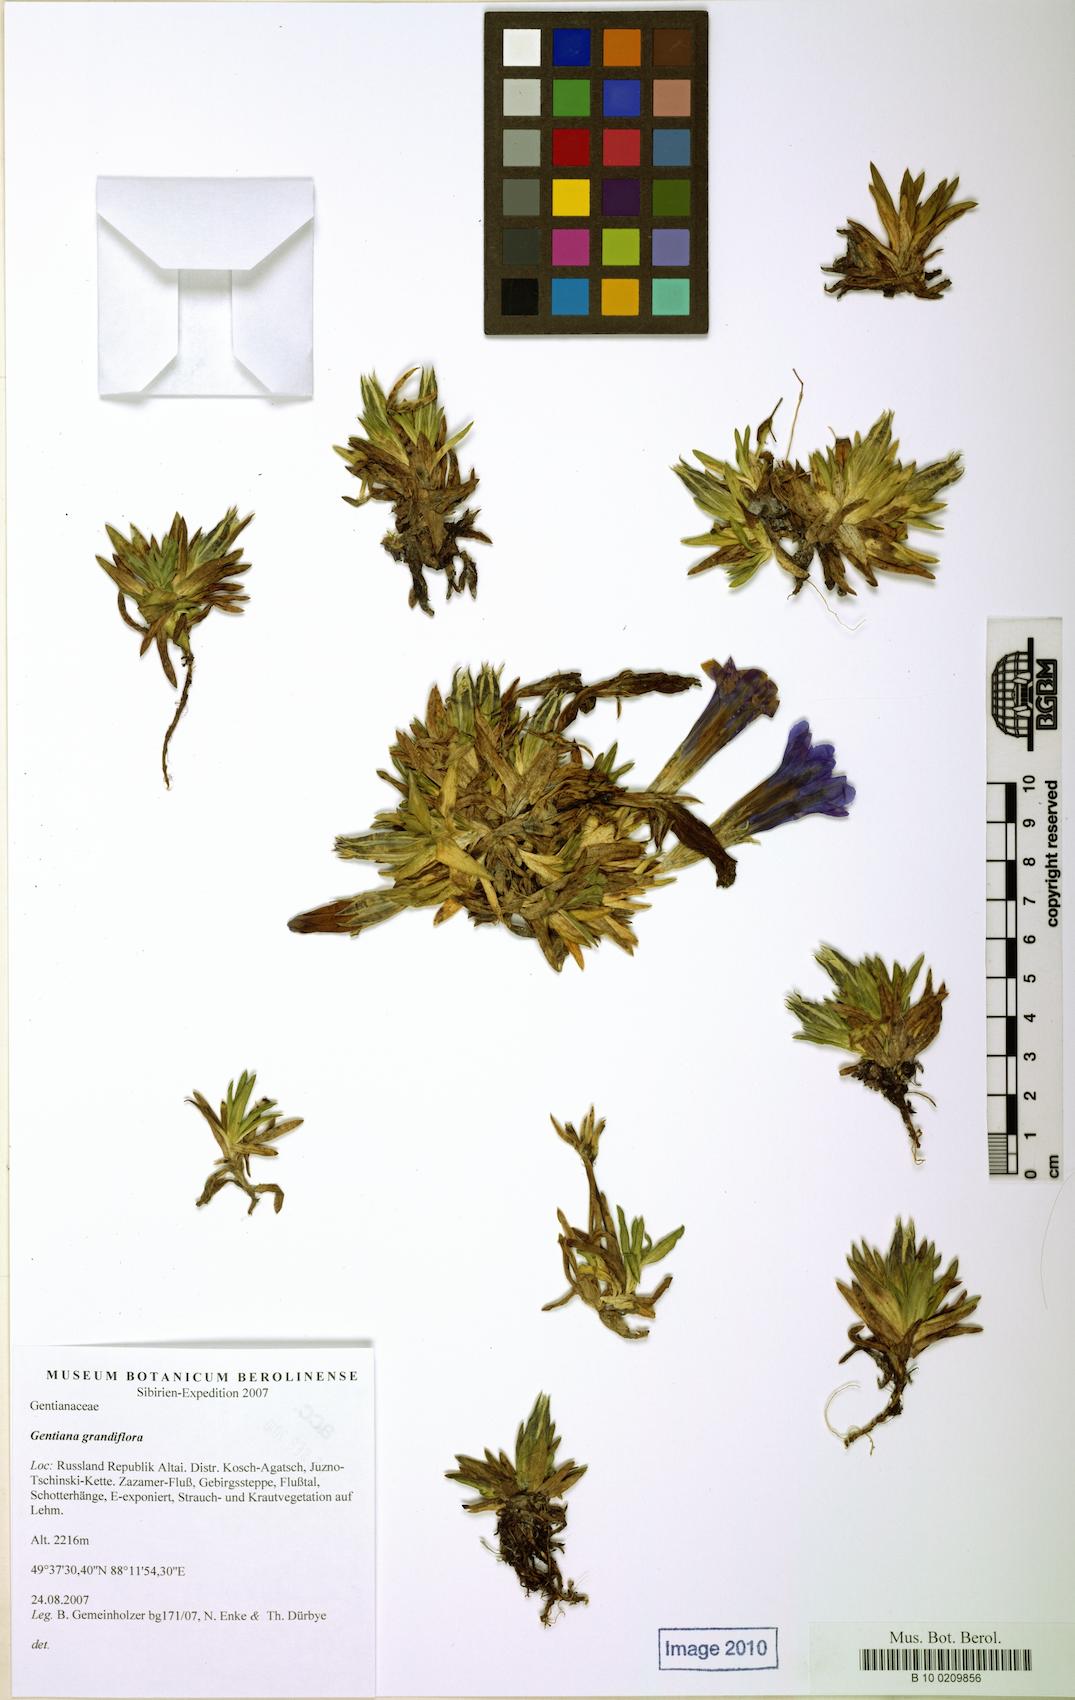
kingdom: Plantae
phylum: Tracheophyta
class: Magnoliopsida
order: Gentianales
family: Gentianaceae
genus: Gentiana
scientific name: Gentiana acaulis
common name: Trumpet gentian
